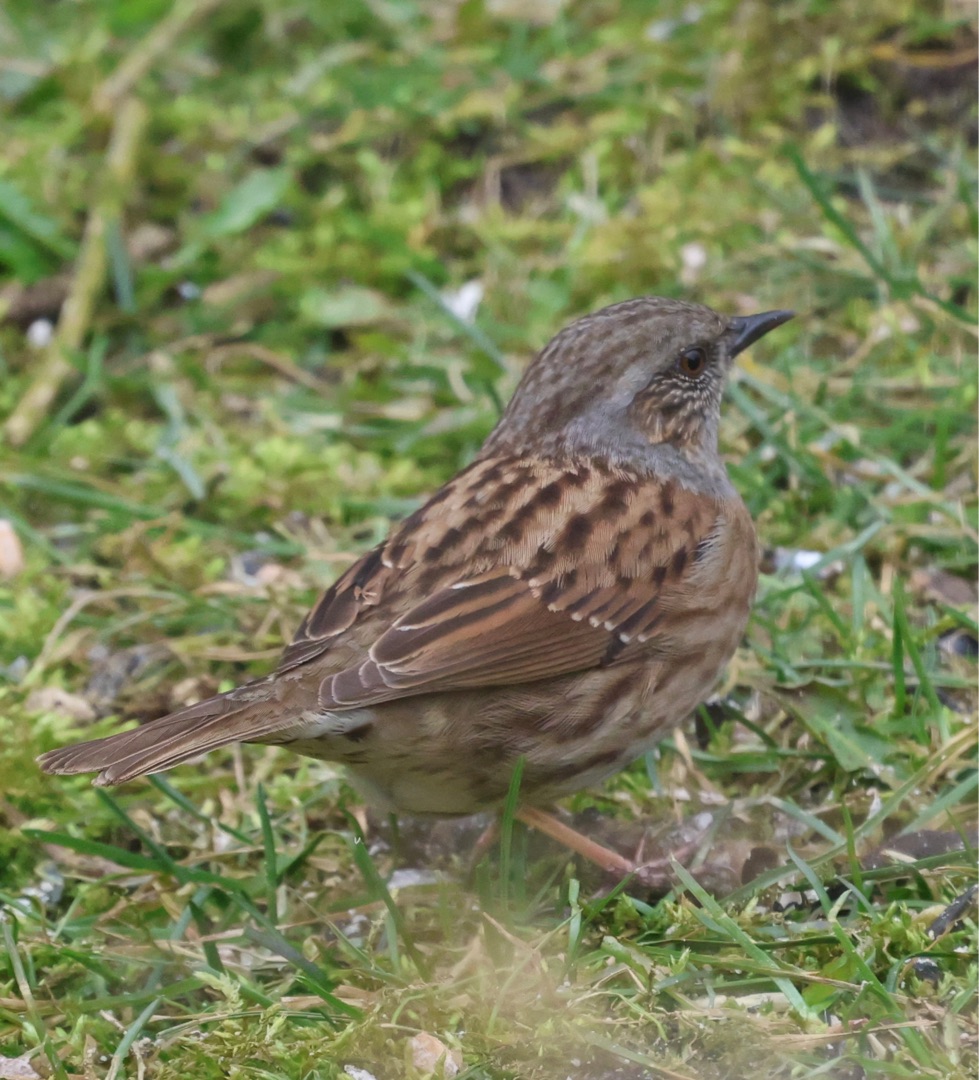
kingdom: Animalia
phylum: Chordata
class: Aves
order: Passeriformes
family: Prunellidae
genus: Prunella
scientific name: Prunella modularis
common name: Jernspurv
